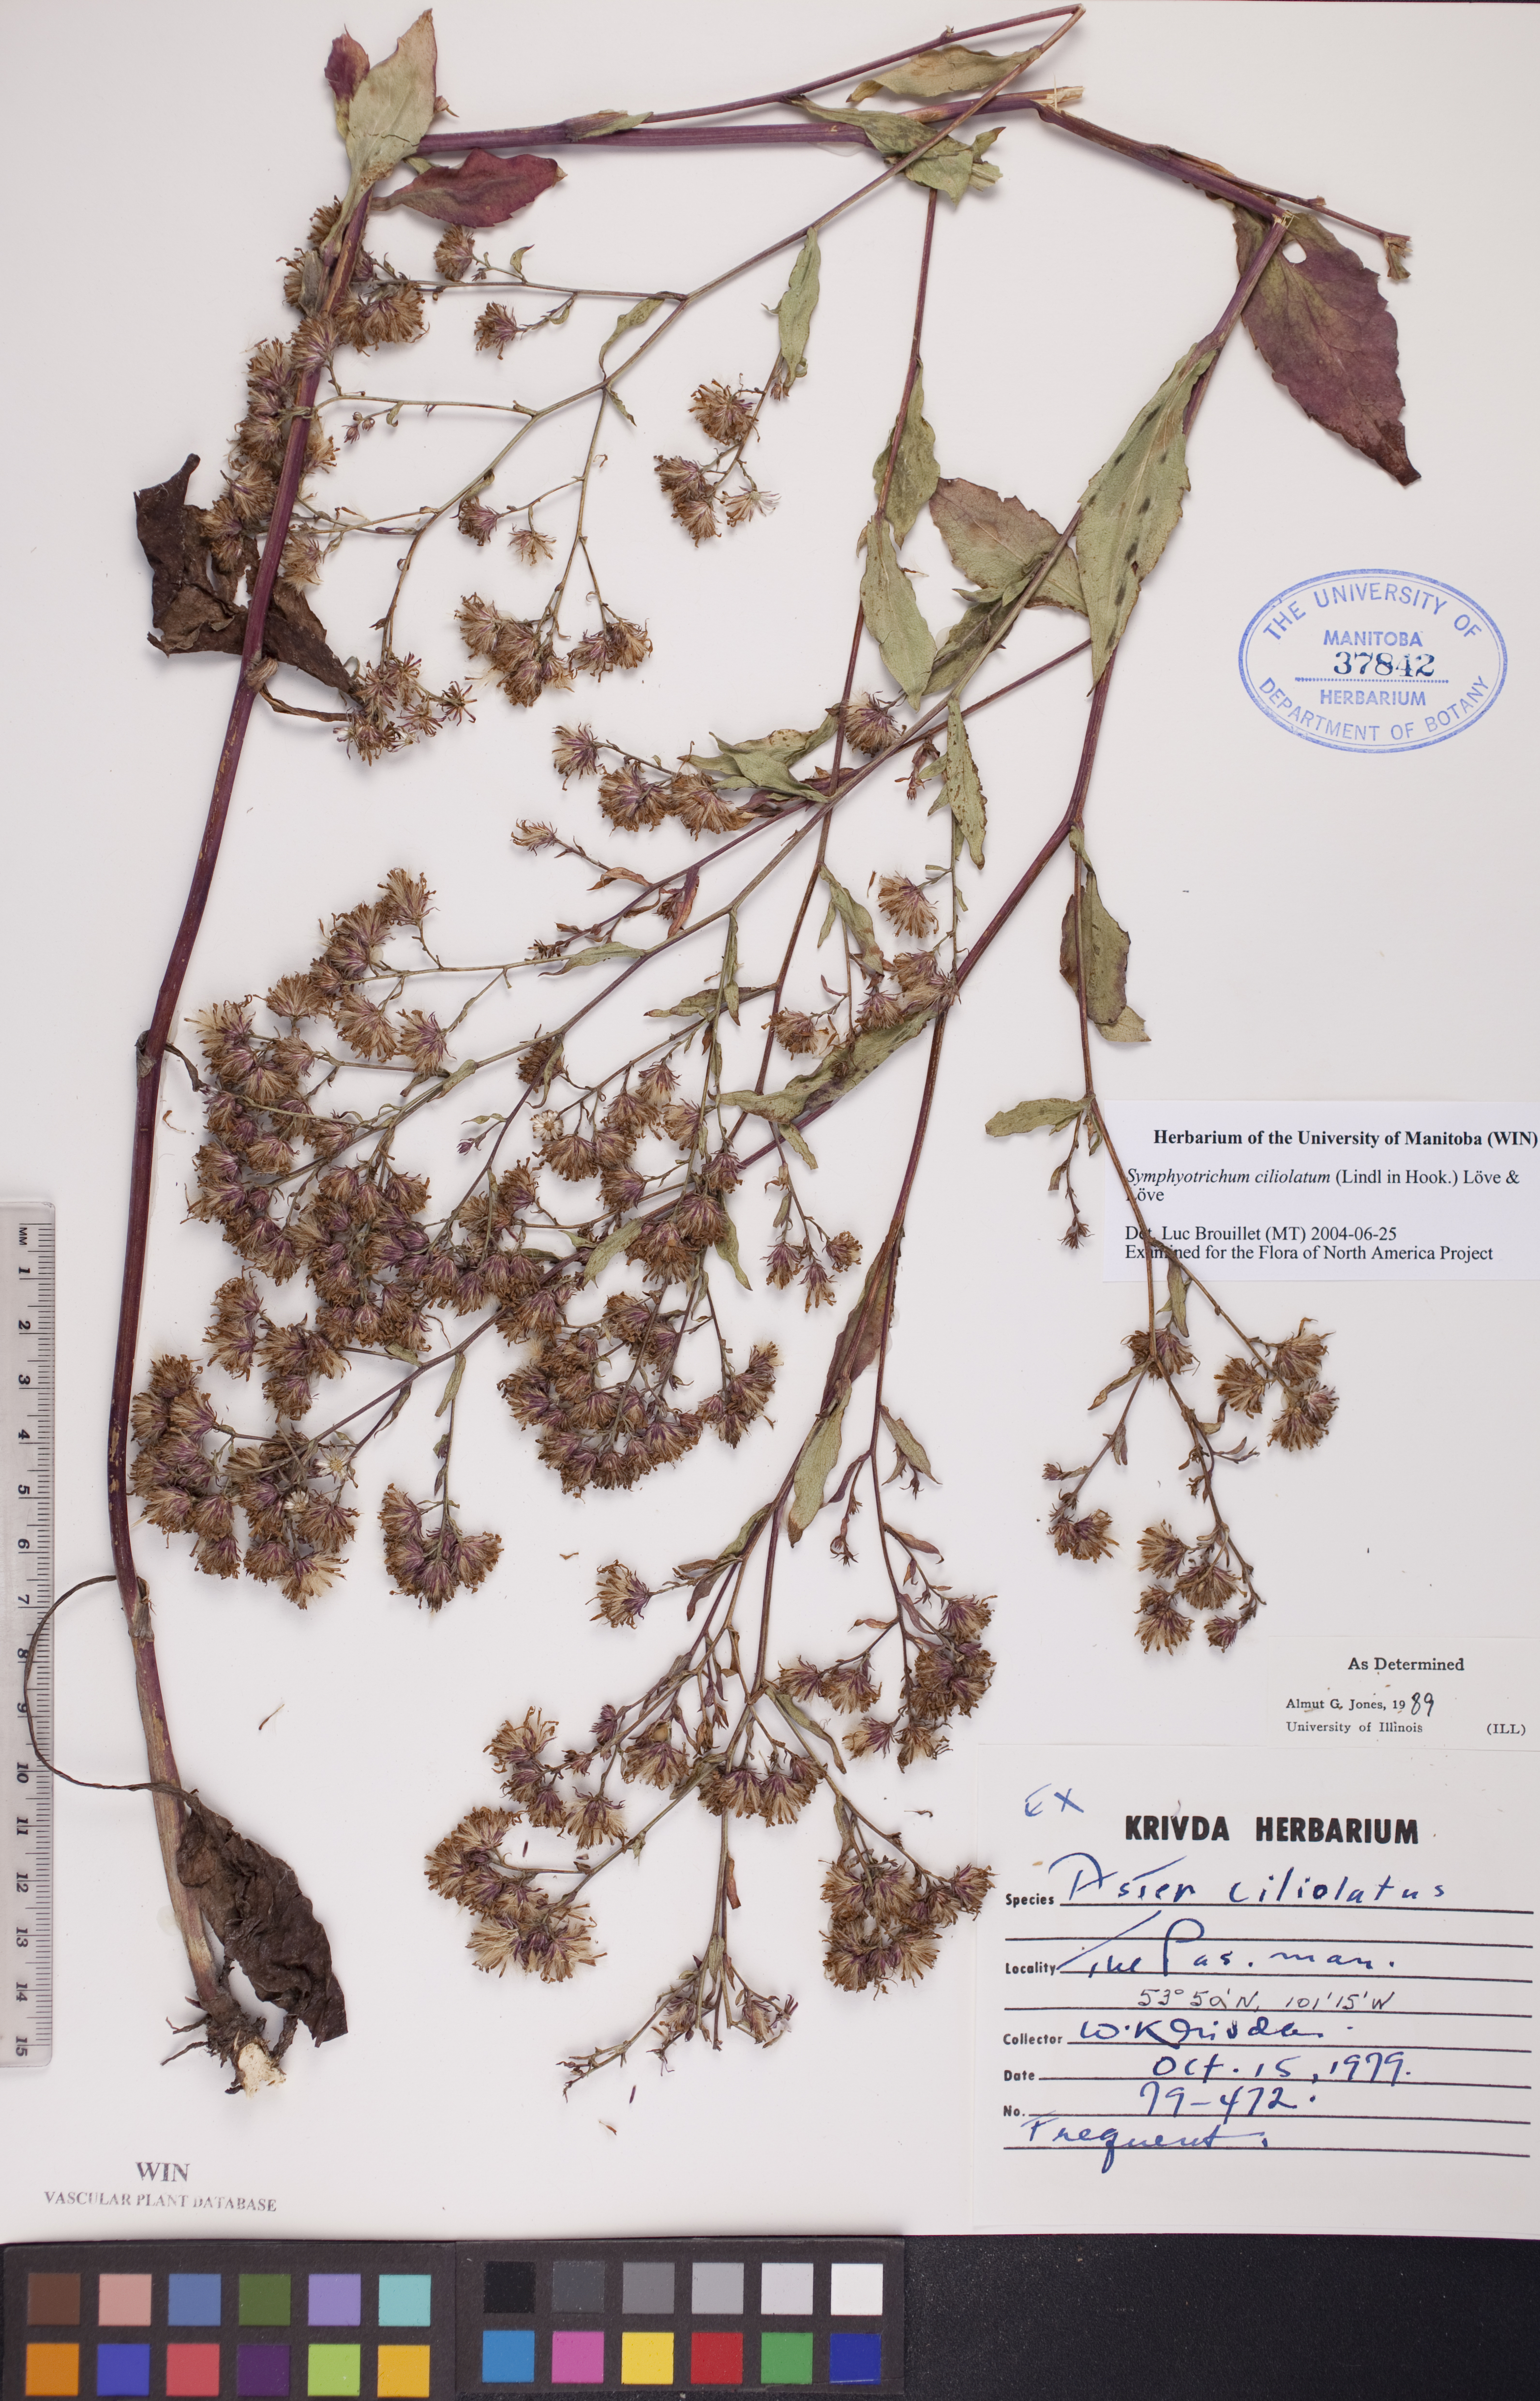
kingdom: Plantae
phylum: Tracheophyta
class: Magnoliopsida
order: Asterales
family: Asteraceae
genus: Symphyotrichum
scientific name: Symphyotrichum ciliolatum
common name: Fringed blue aster
